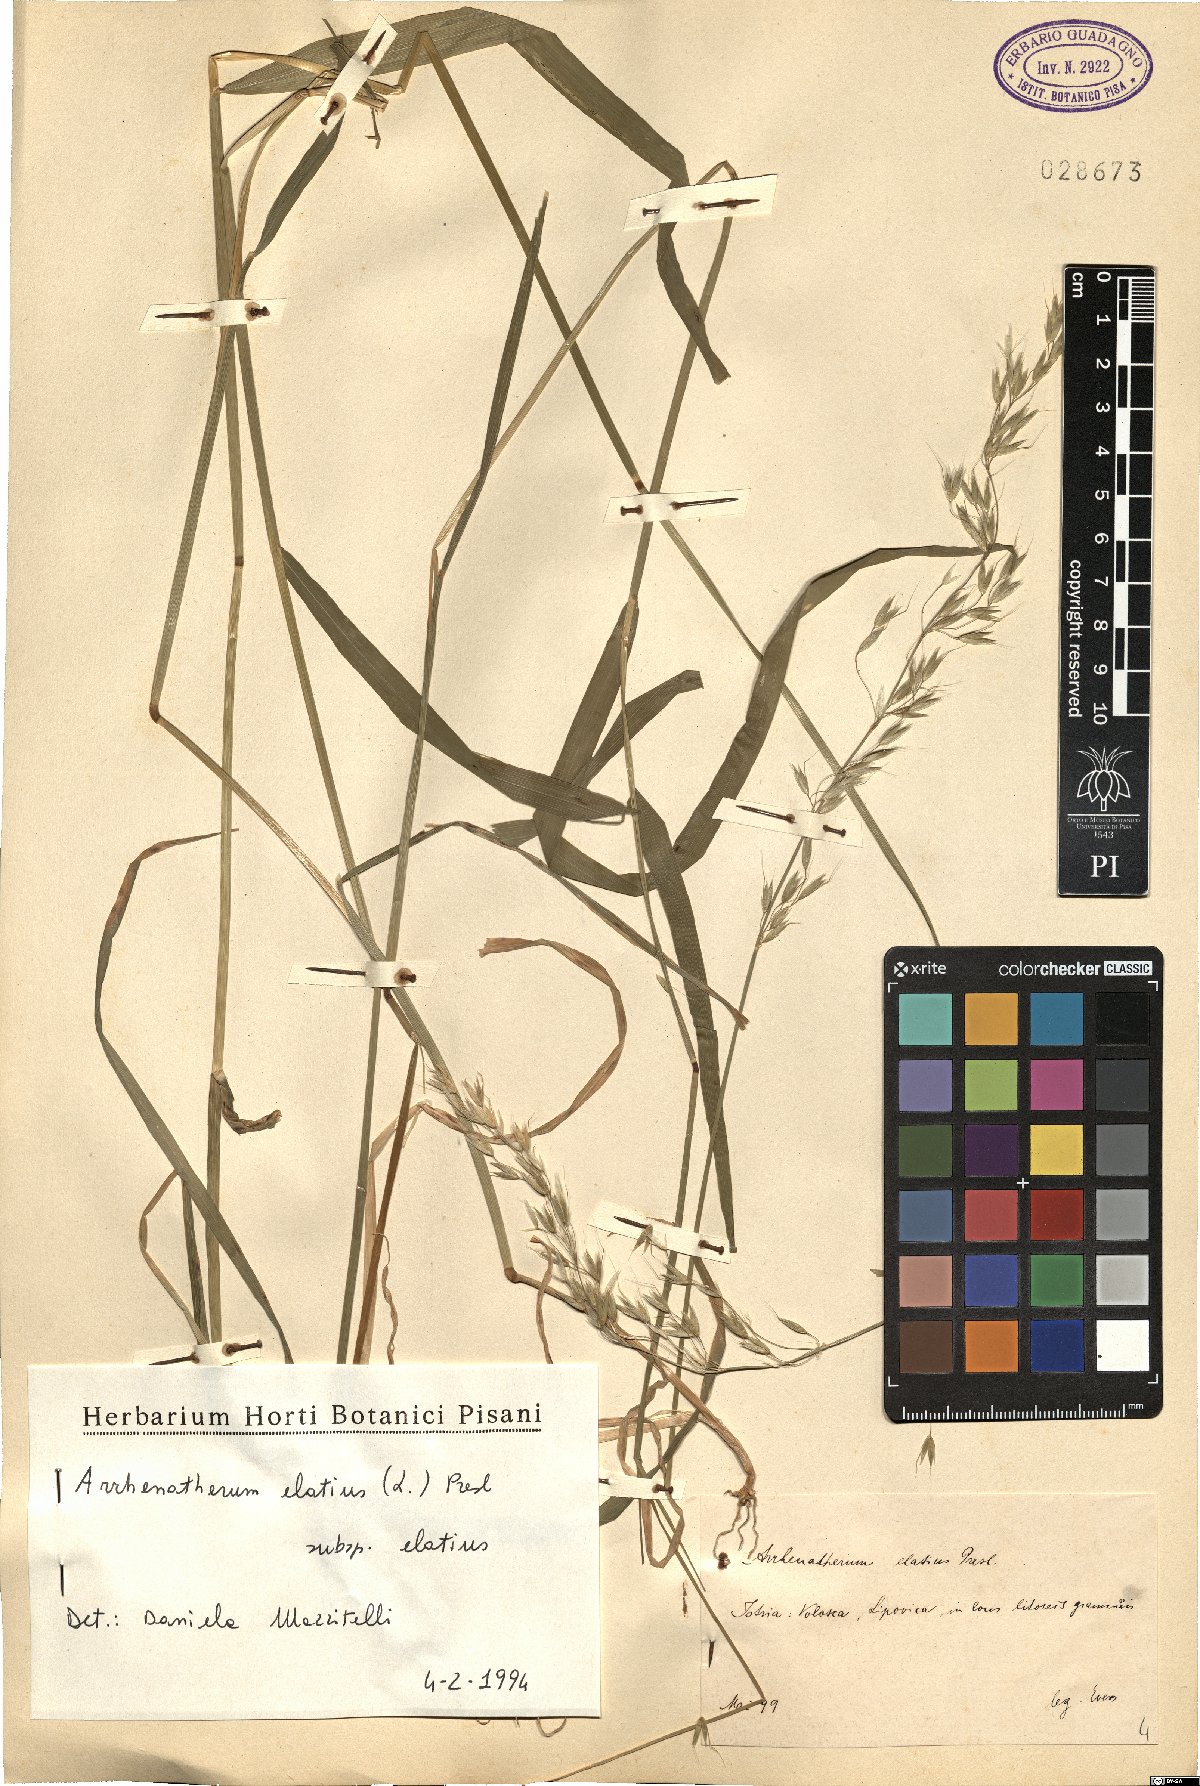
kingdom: Plantae
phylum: Tracheophyta
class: Liliopsida
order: Poales
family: Poaceae
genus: Arrhenatherum
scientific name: Arrhenatherum elatius
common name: Tall oatgrass
